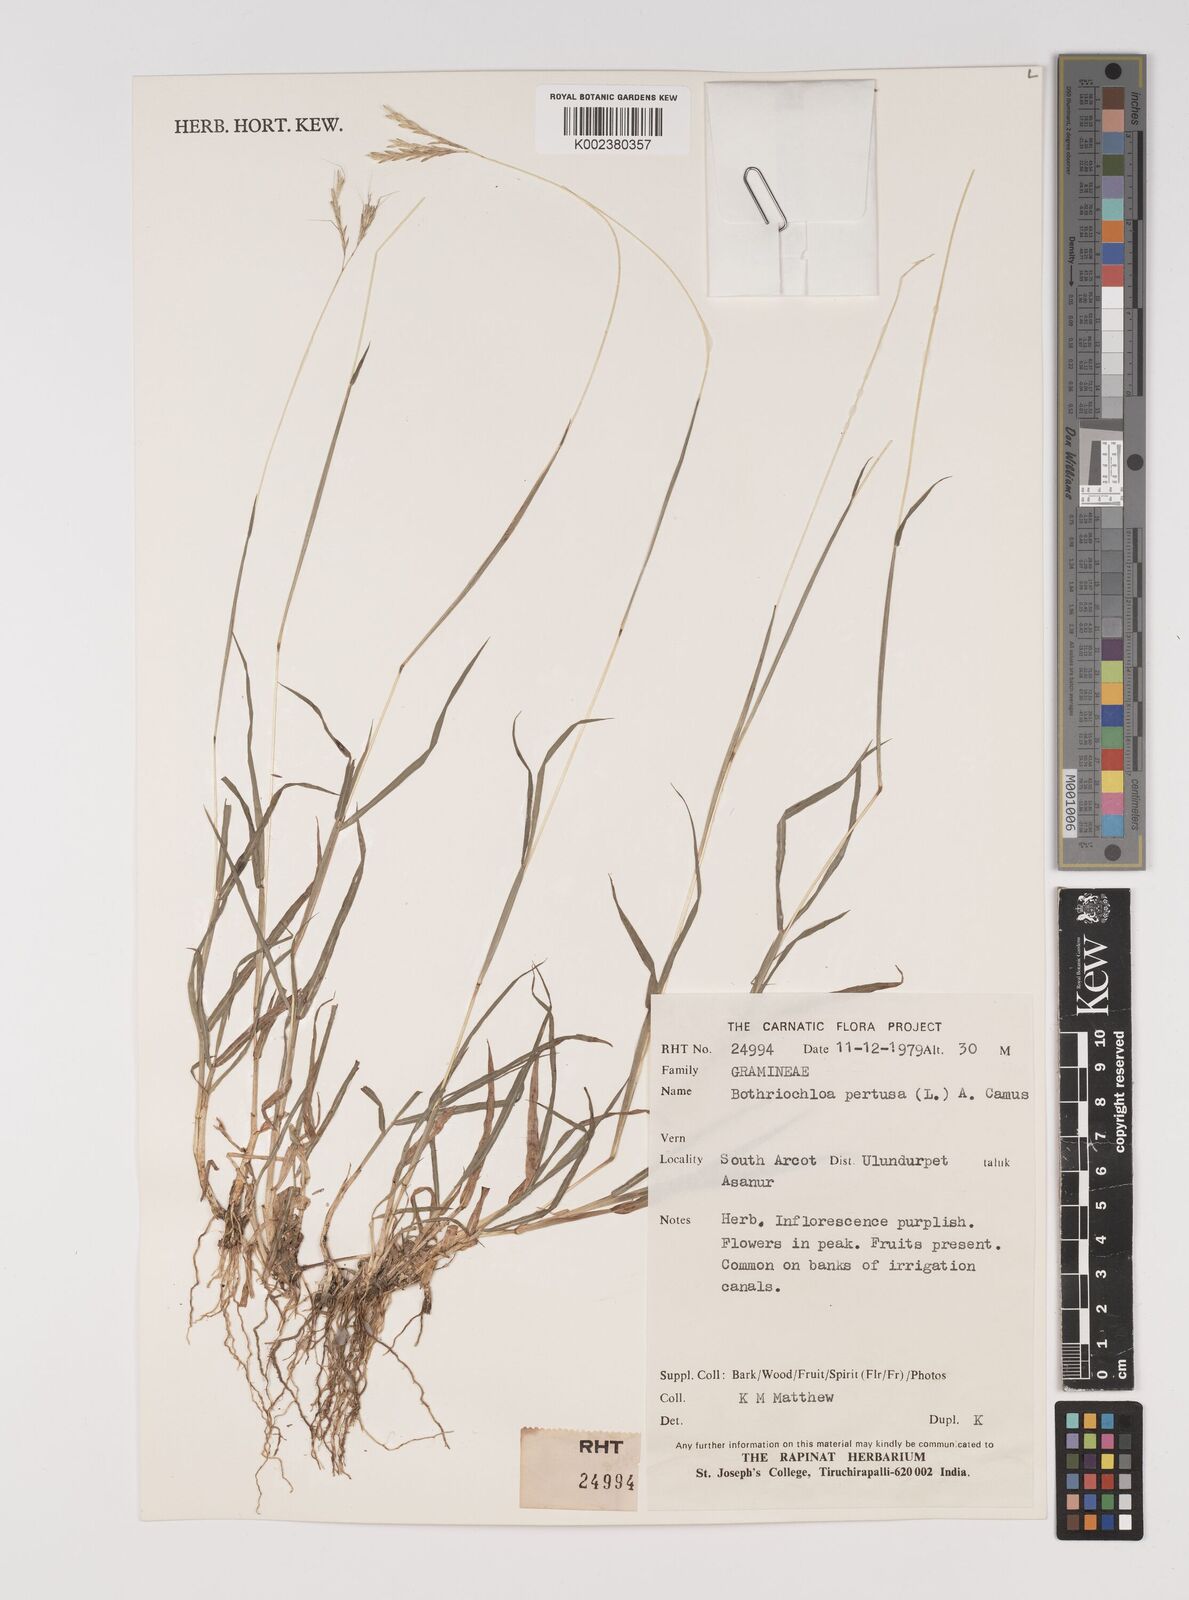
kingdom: Plantae
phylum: Tracheophyta
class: Liliopsida
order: Poales
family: Poaceae
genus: Bothriochloa
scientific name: Bothriochloa pertusa
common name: Pitted beardgrass
